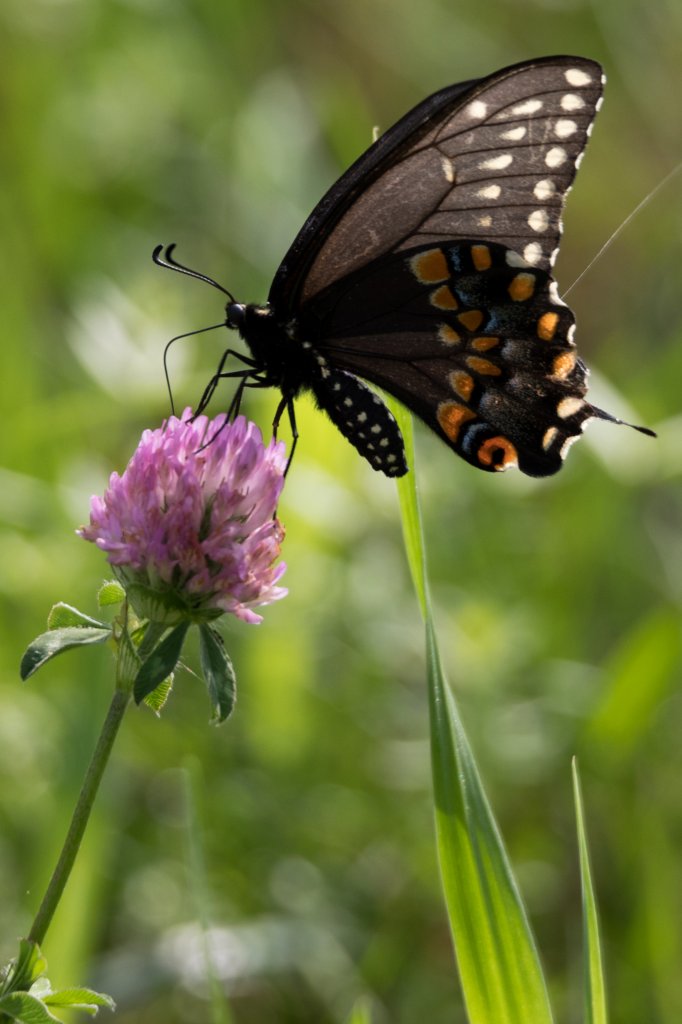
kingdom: Animalia
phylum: Arthropoda
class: Insecta
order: Lepidoptera
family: Papilionidae
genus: Papilio
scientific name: Papilio polyxenes
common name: Black Swallowtail
